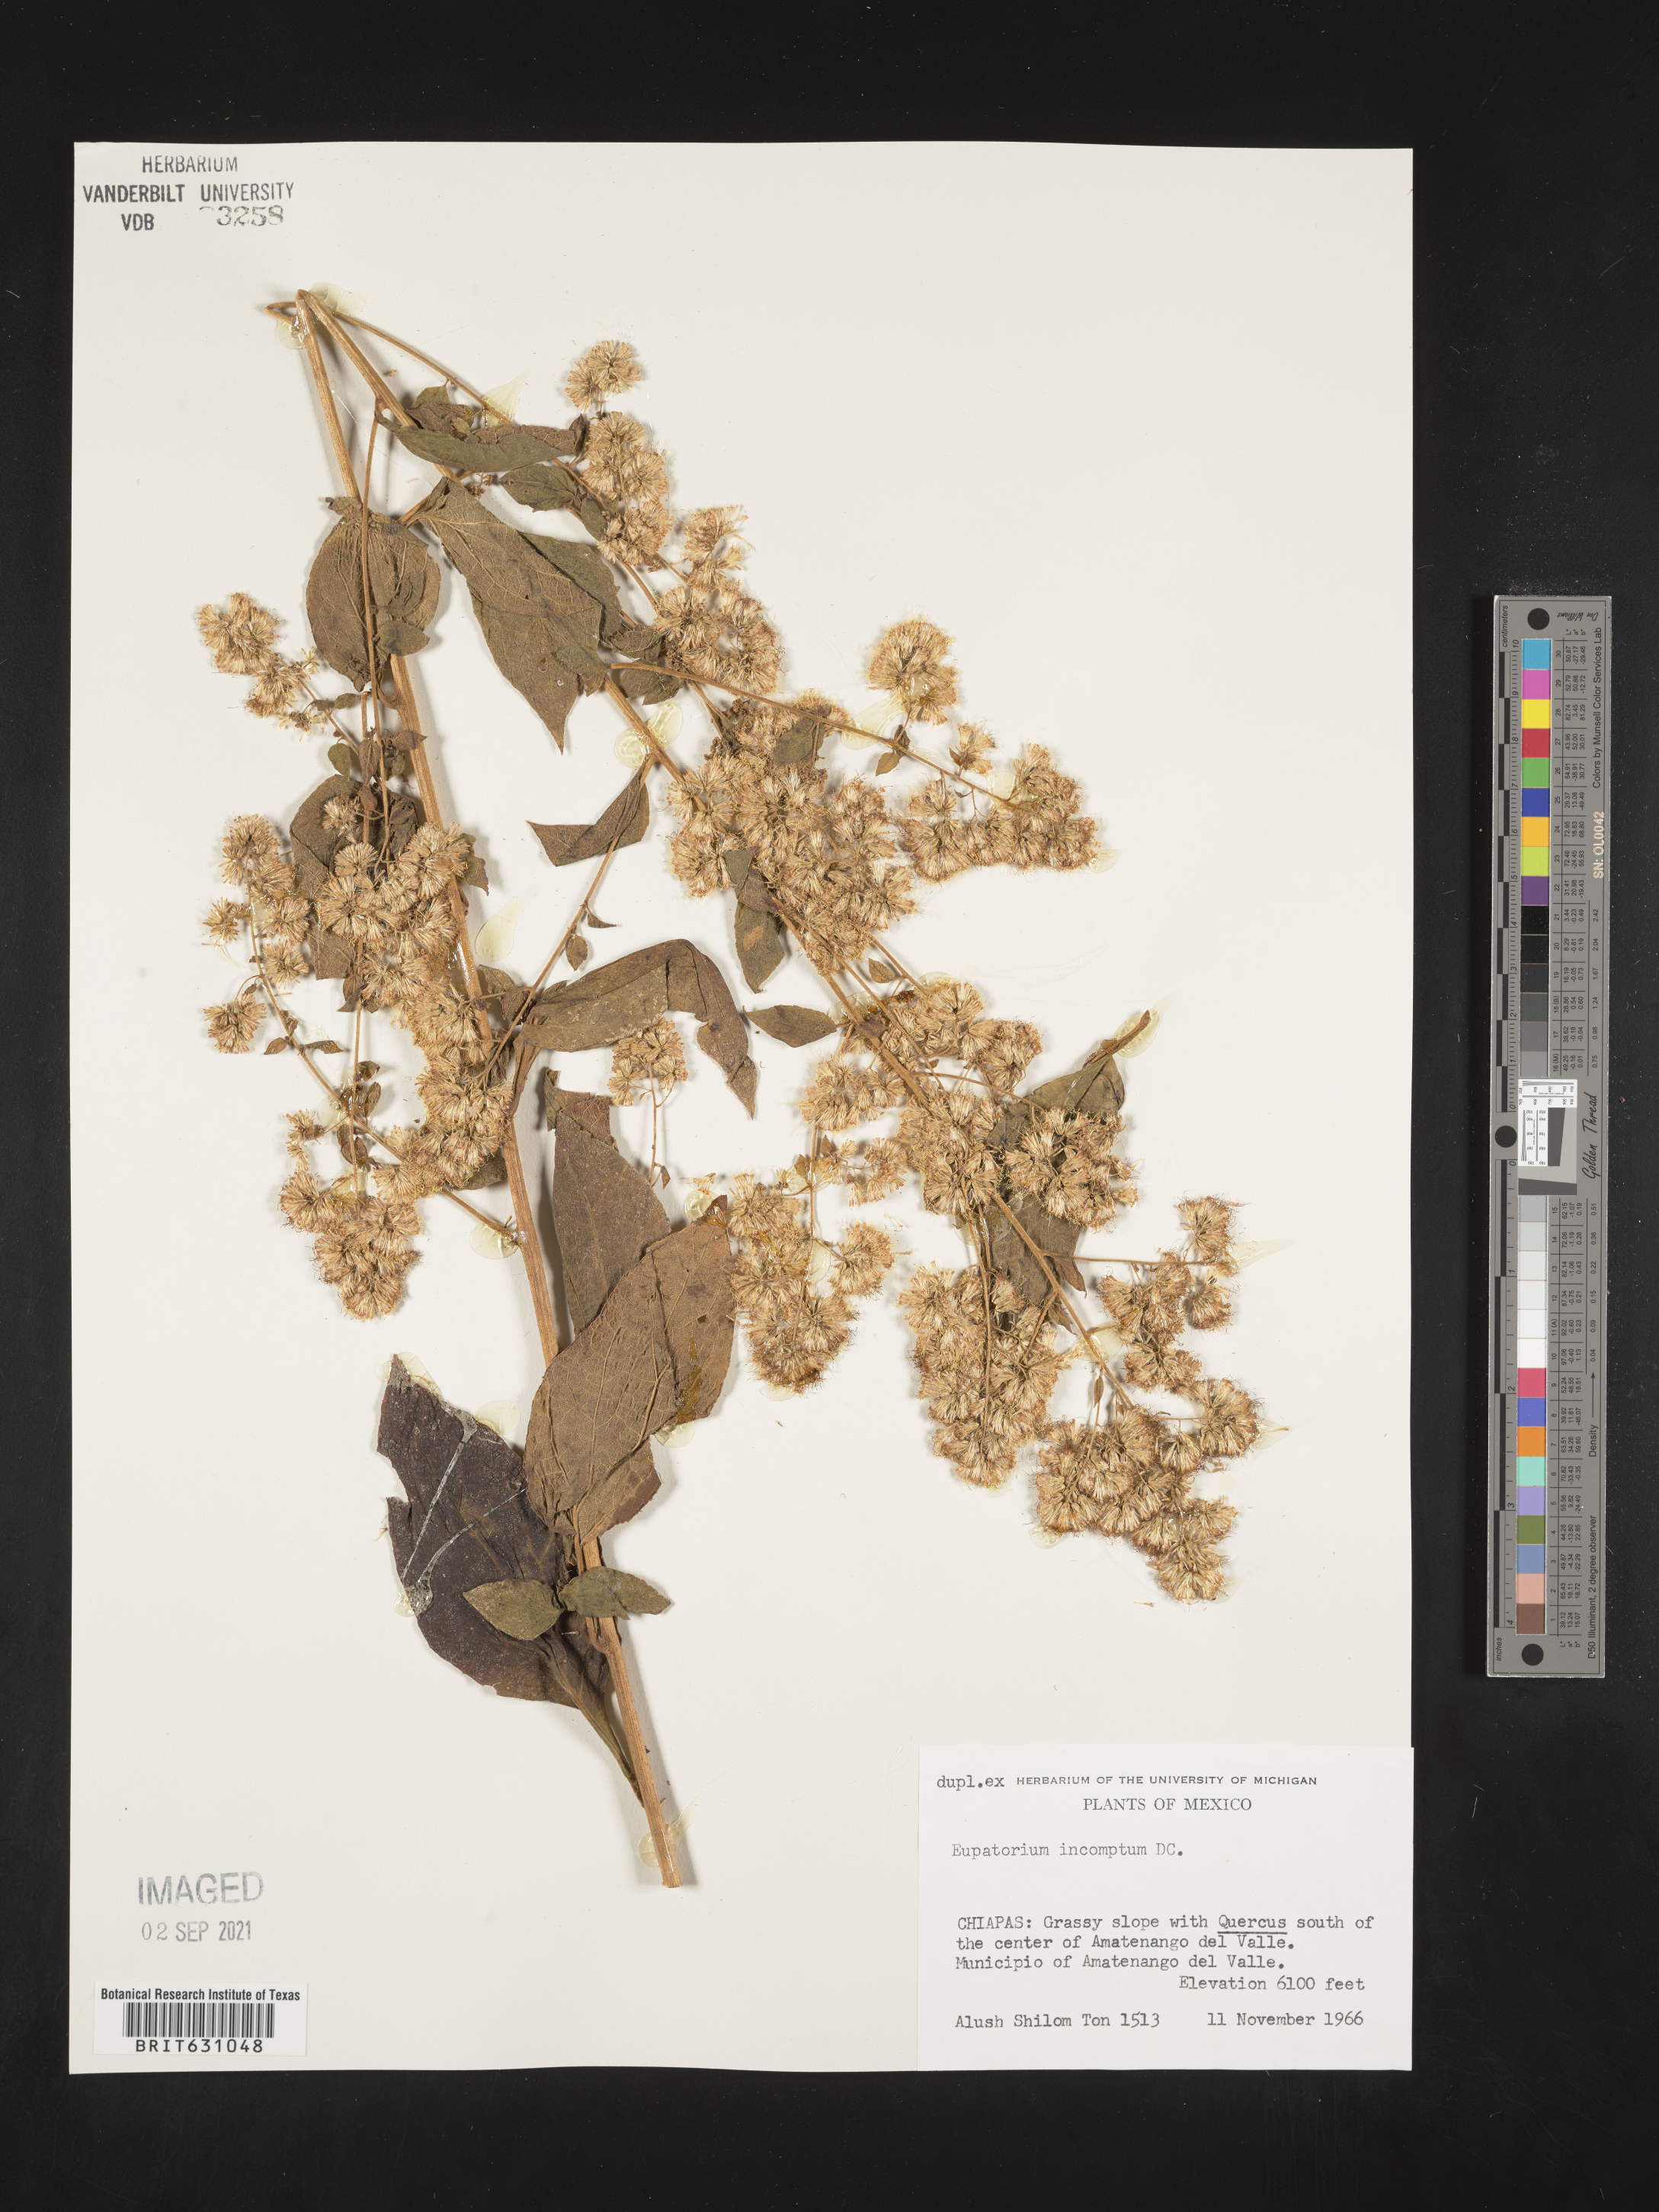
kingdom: Plantae
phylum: Tracheophyta
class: Magnoliopsida
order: Asterales
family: Asteraceae
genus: Eupatorium
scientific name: Eupatorium
